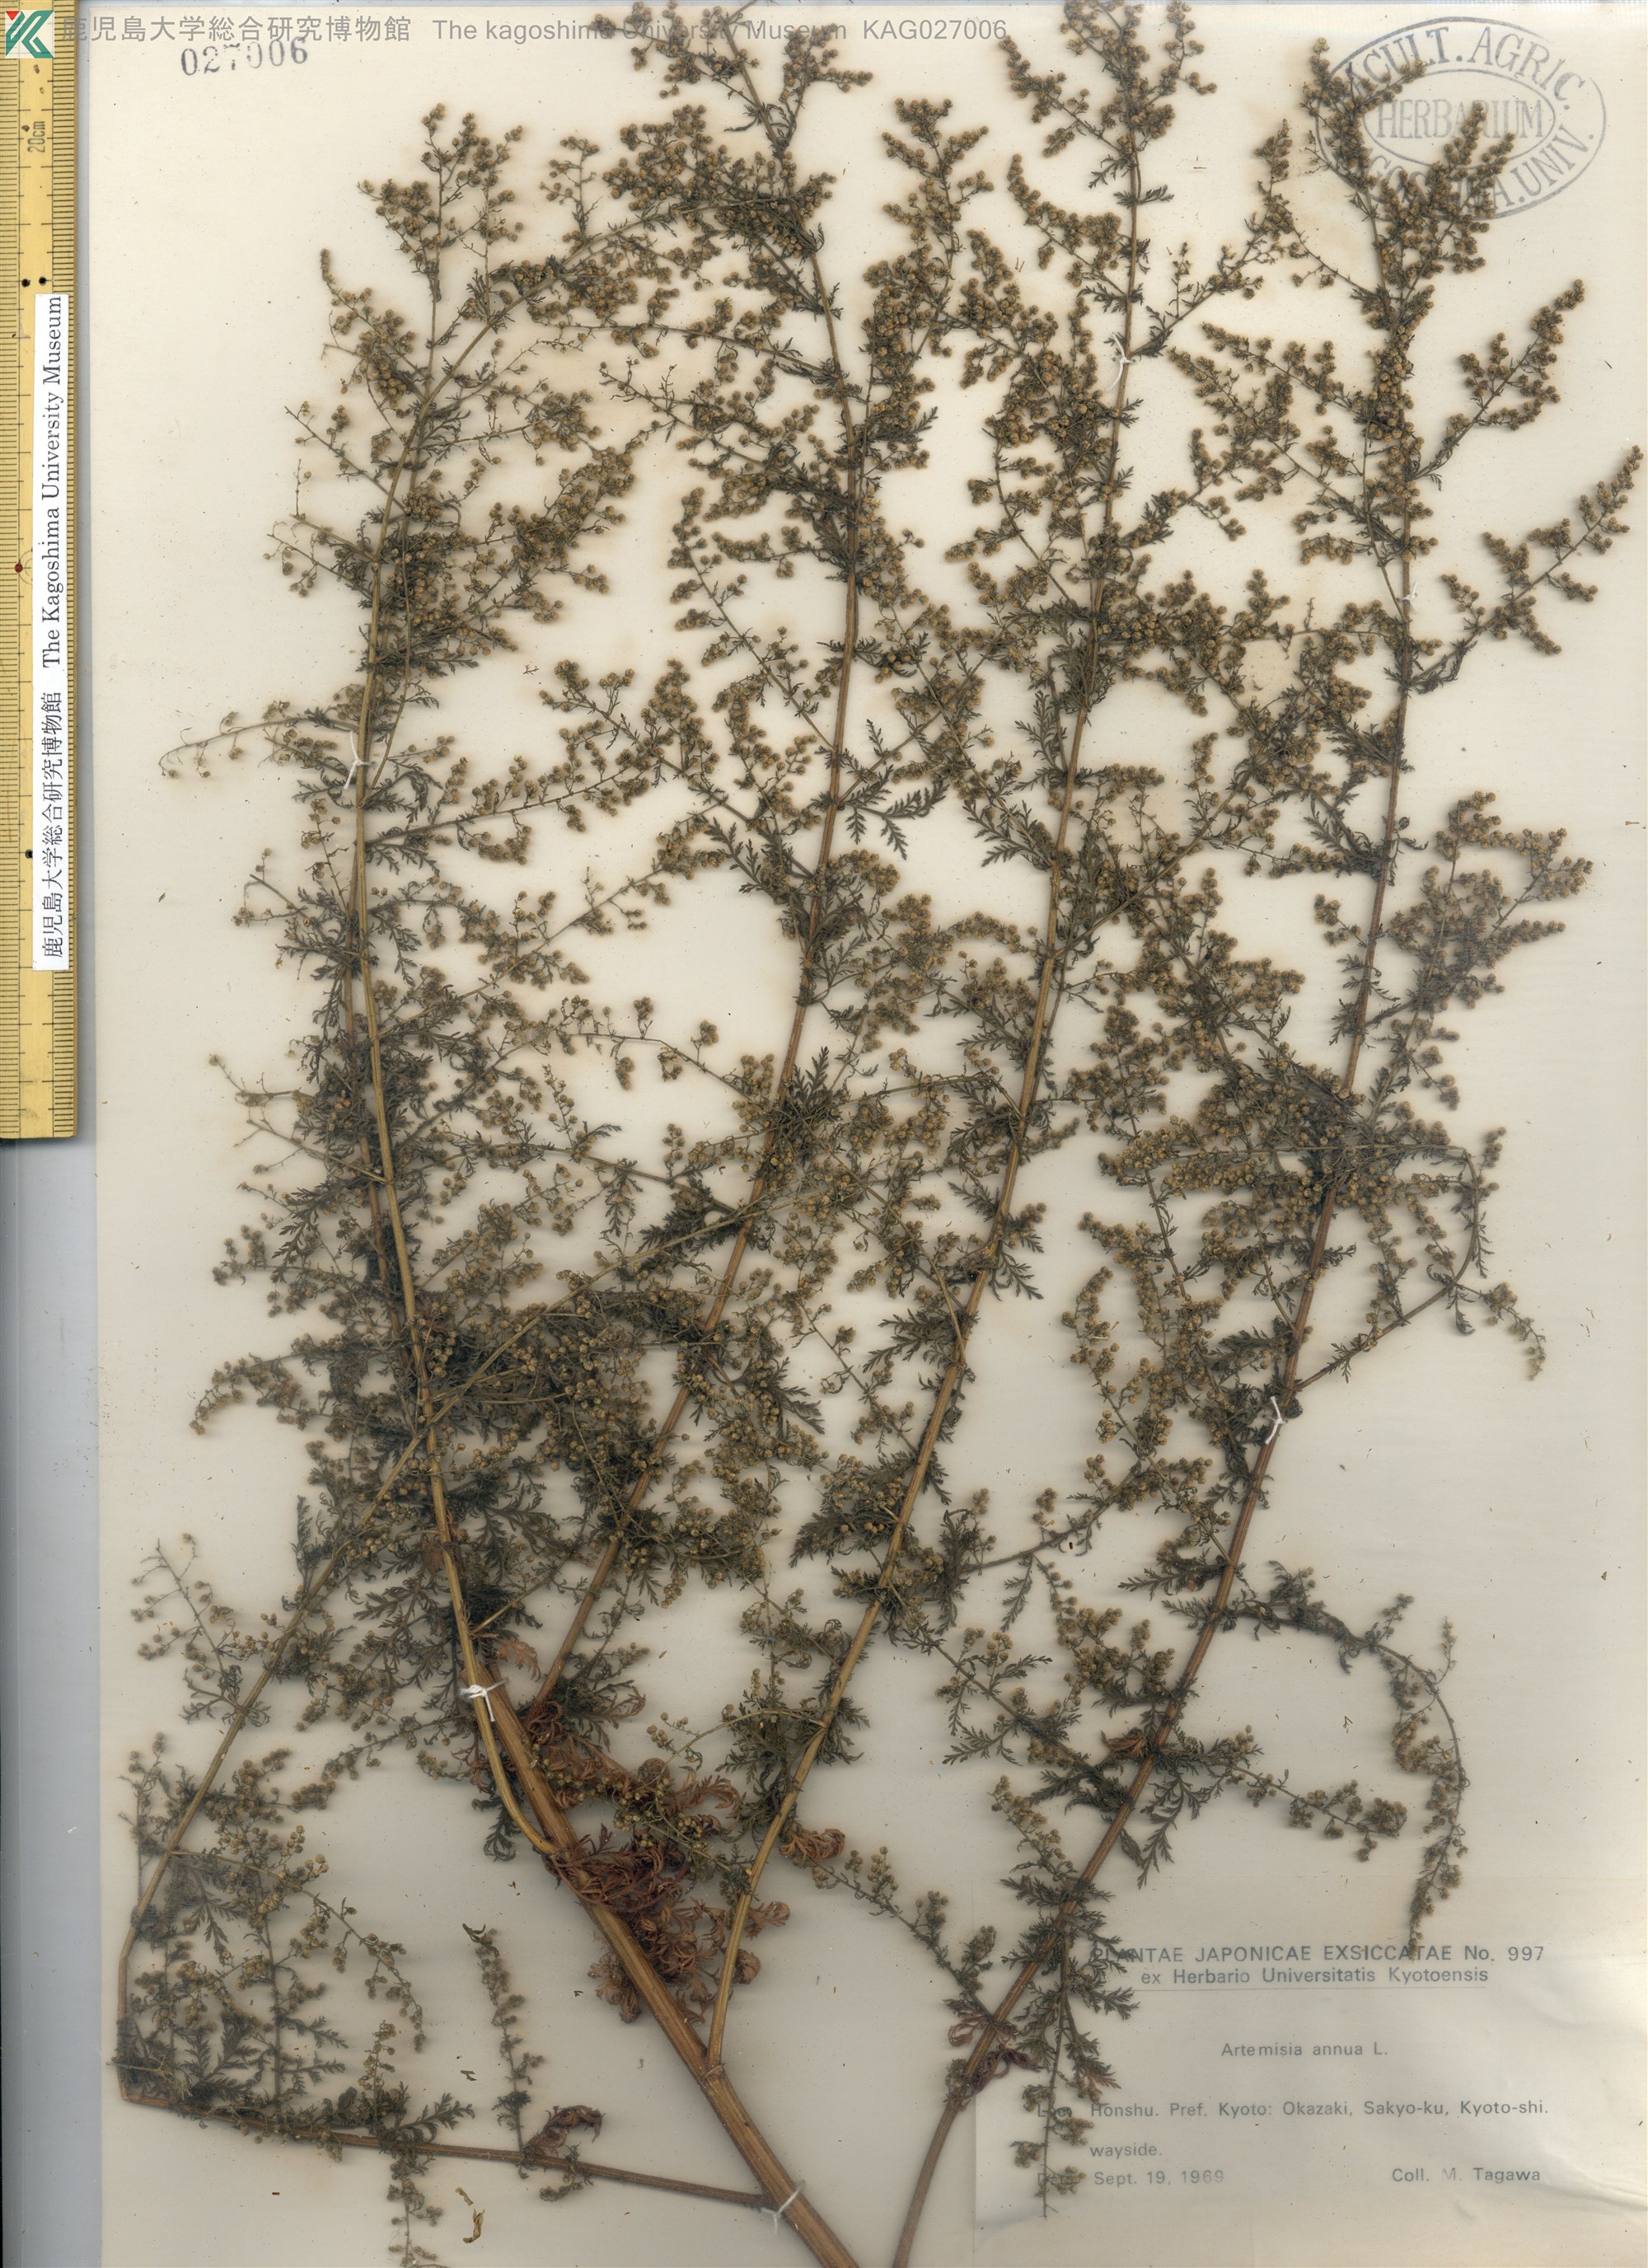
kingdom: Plantae
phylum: Tracheophyta
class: Magnoliopsida
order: Asterales
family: Asteraceae
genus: Artemisia
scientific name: Artemisia annua
